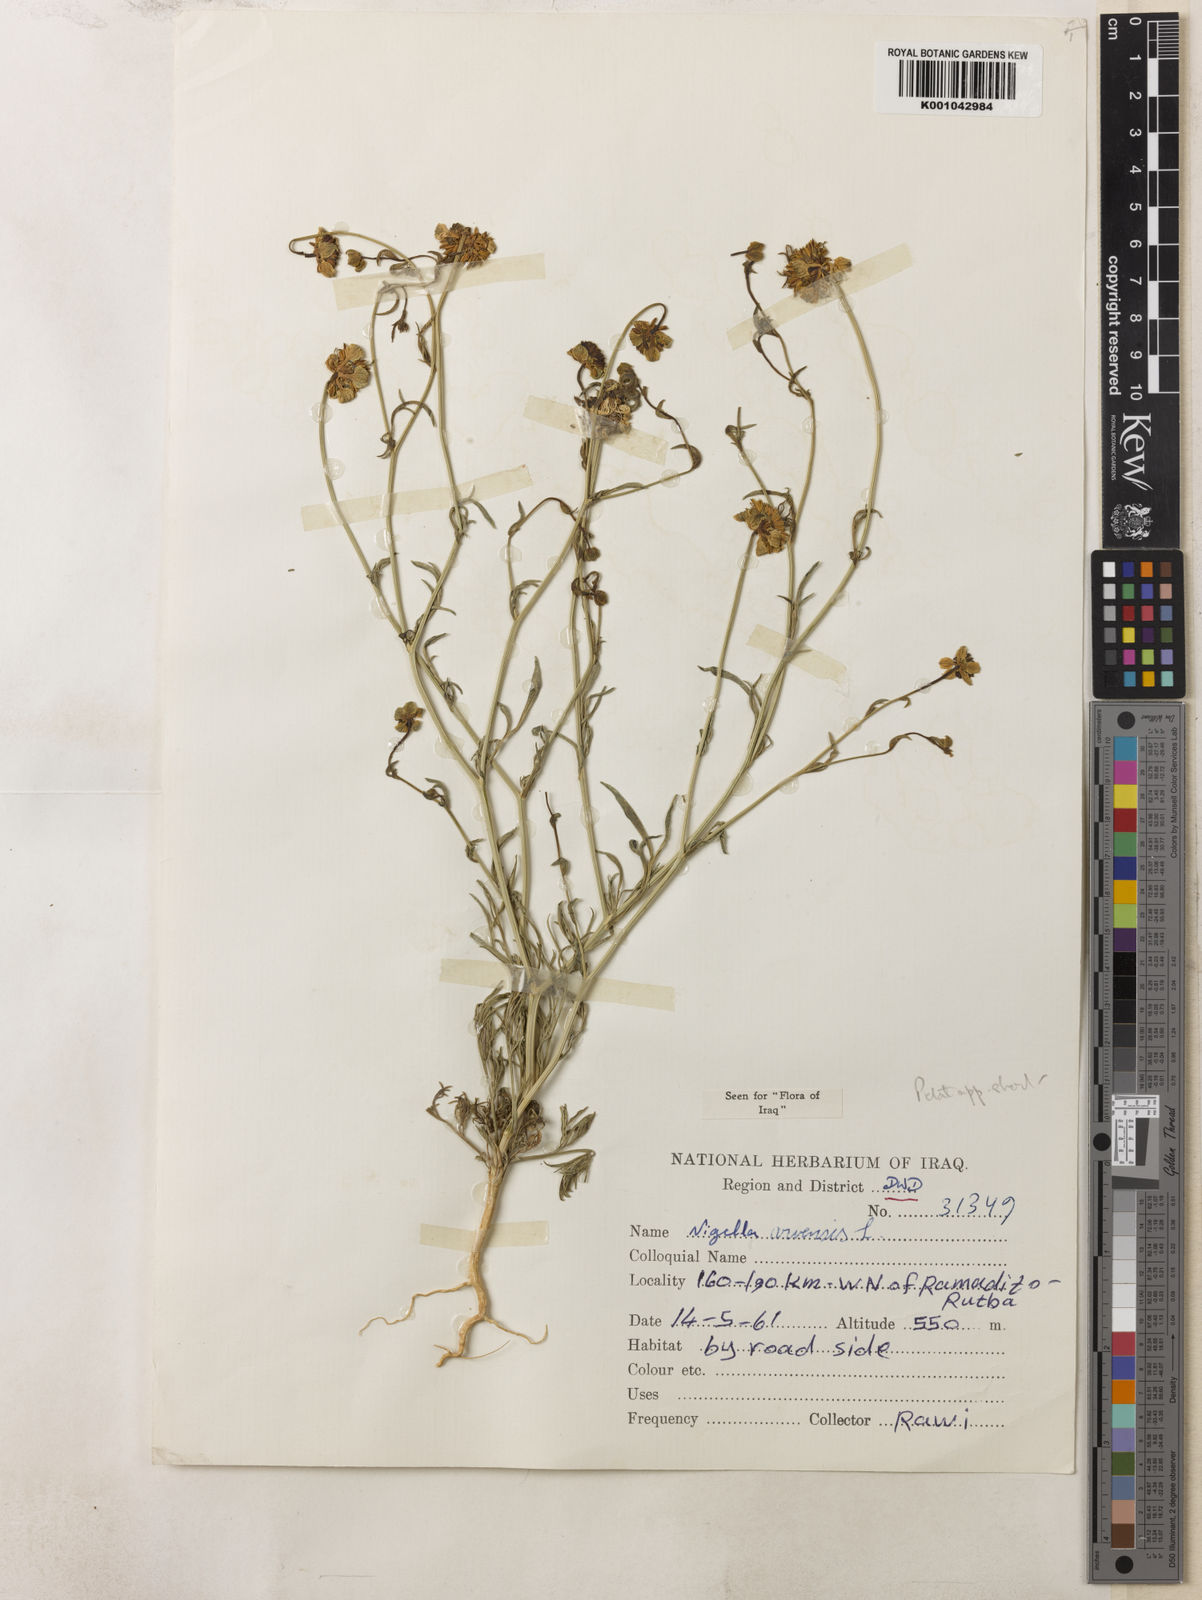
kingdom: Plantae
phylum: Tracheophyta
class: Magnoliopsida
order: Ranunculales
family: Ranunculaceae
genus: Nigella
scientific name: Nigella arvensis
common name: Wild fennel-flower
